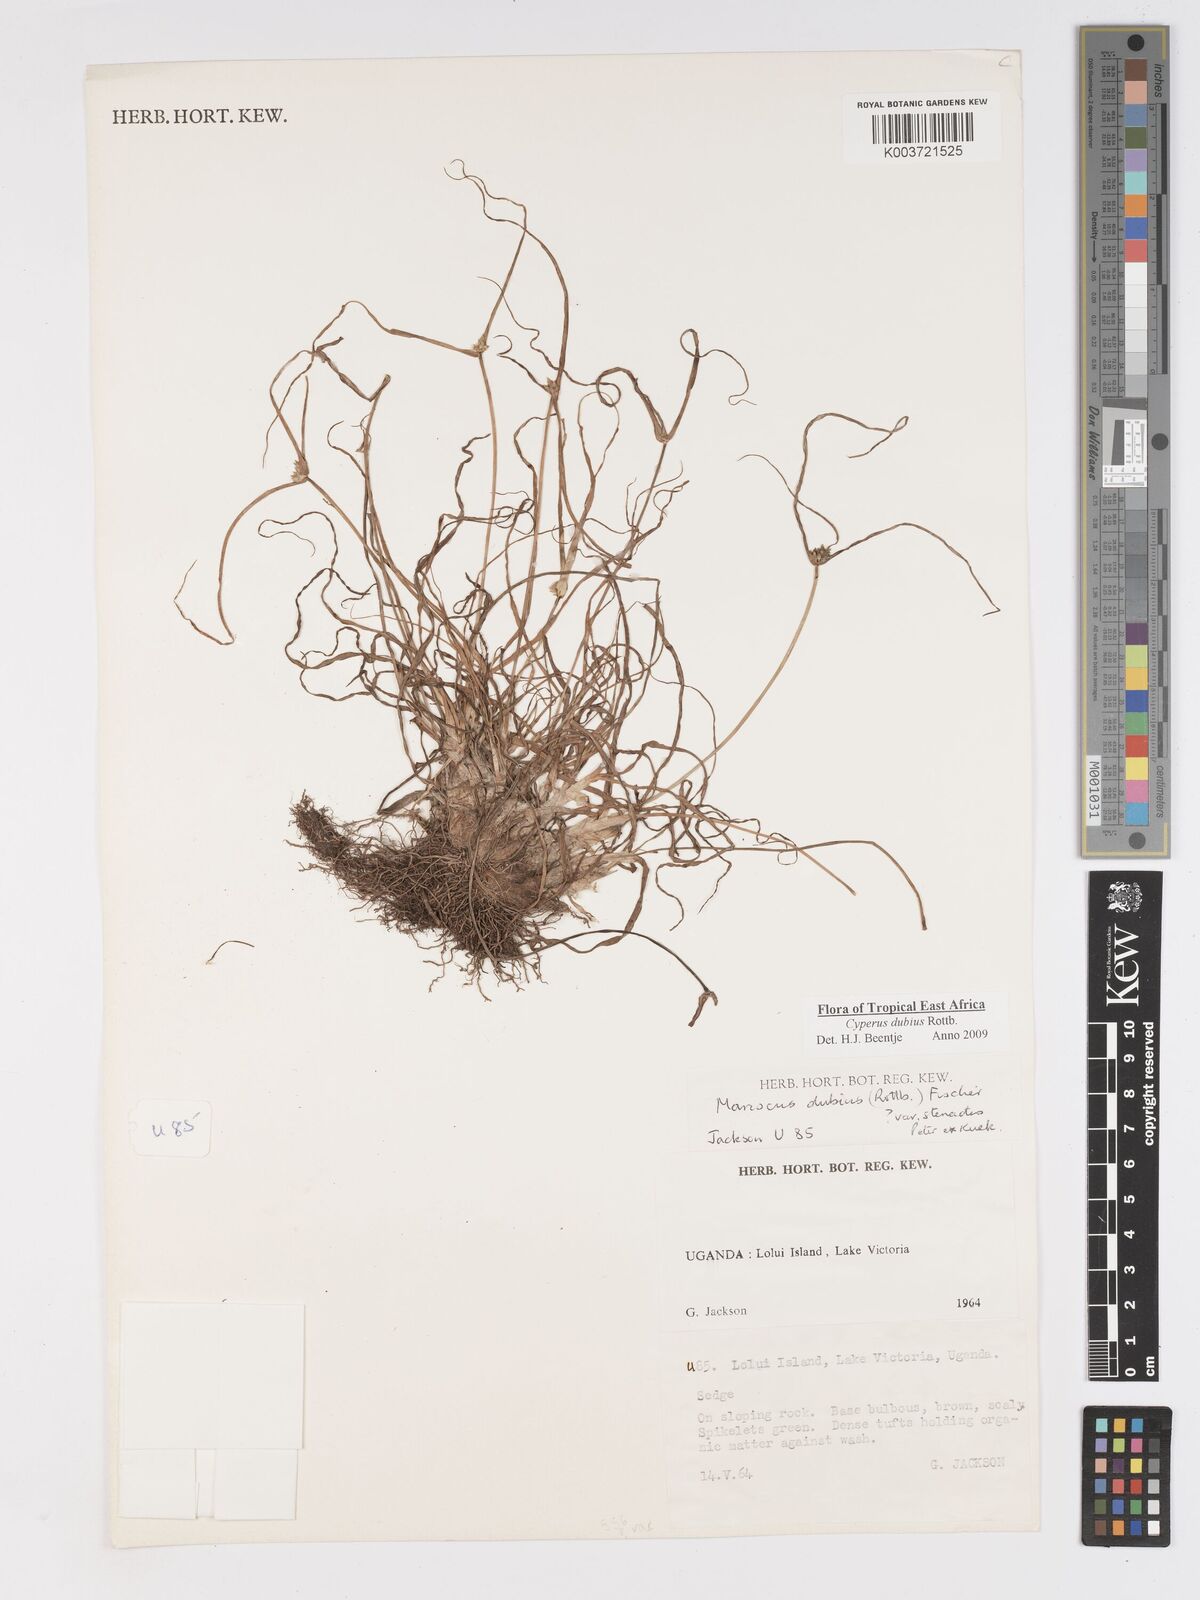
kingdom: Plantae
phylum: Tracheophyta
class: Liliopsida
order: Poales
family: Cyperaceae
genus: Cyperus
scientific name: Cyperus dubius
